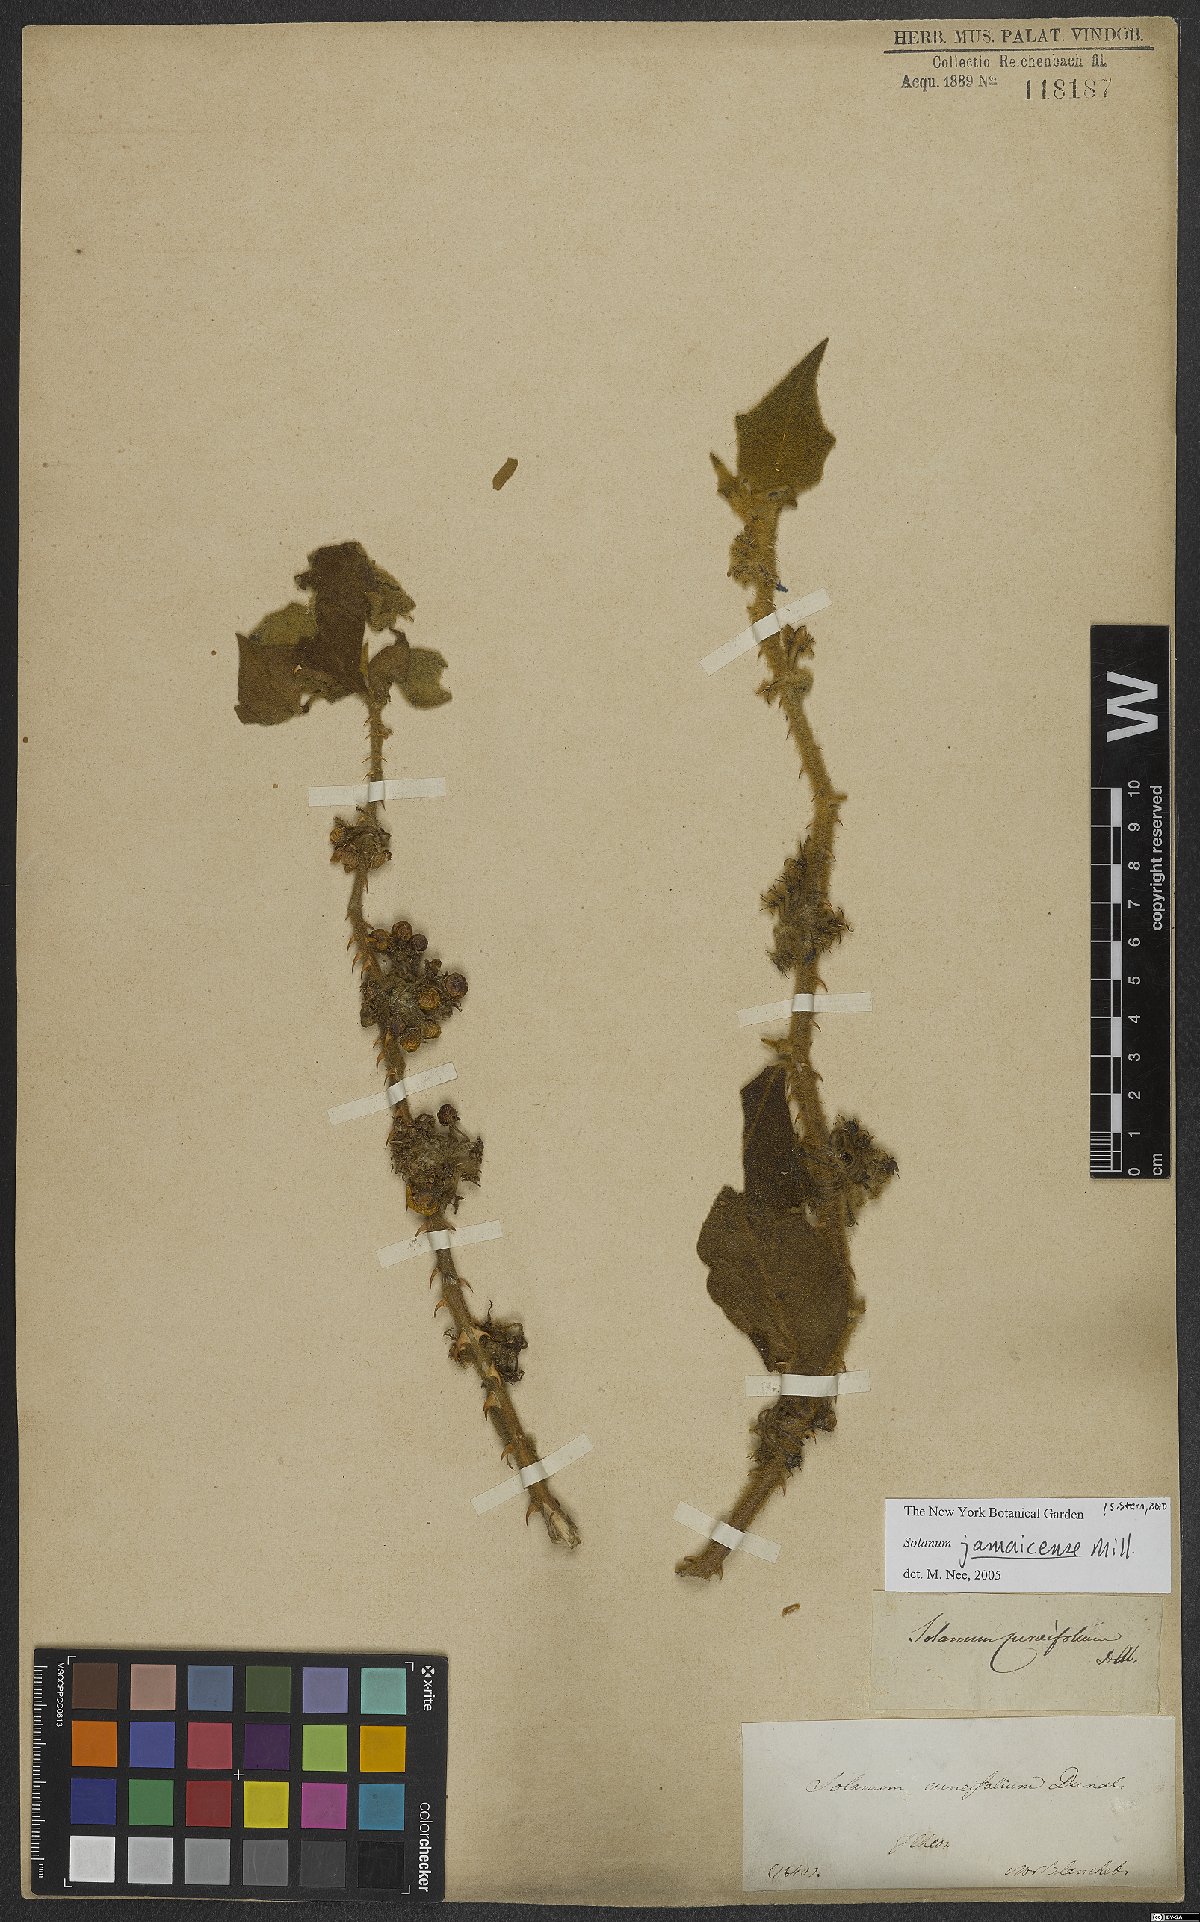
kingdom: Plantae
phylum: Tracheophyta
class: Magnoliopsida
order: Solanales
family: Solanaceae
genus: Solanum
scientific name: Solanum jamaicense
